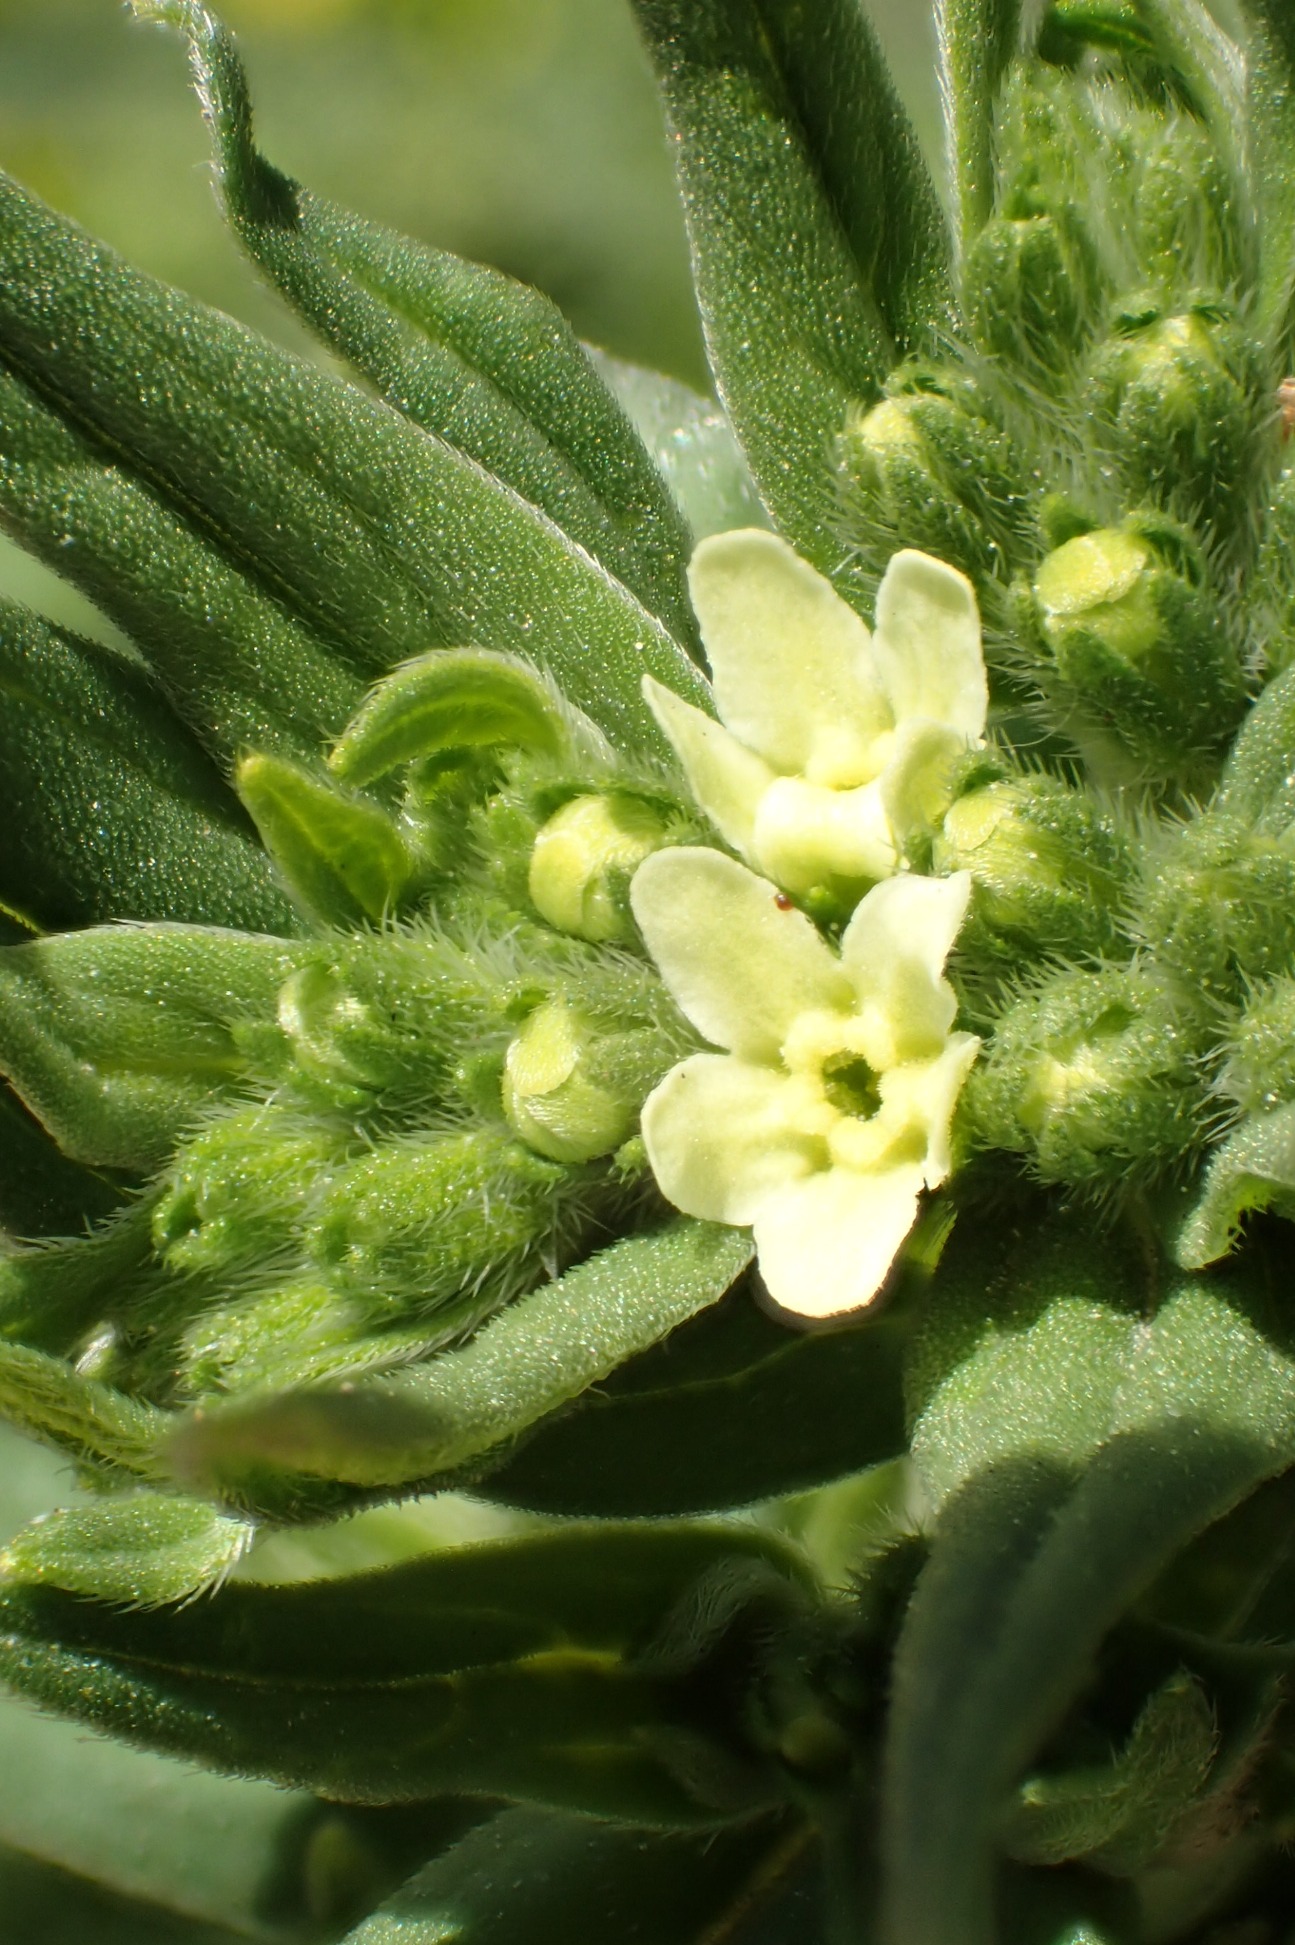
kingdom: Plantae
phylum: Tracheophyta
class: Magnoliopsida
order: Boraginales
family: Boraginaceae
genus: Lithospermum
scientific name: Lithospermum officinale
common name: Læge-stenfrø
